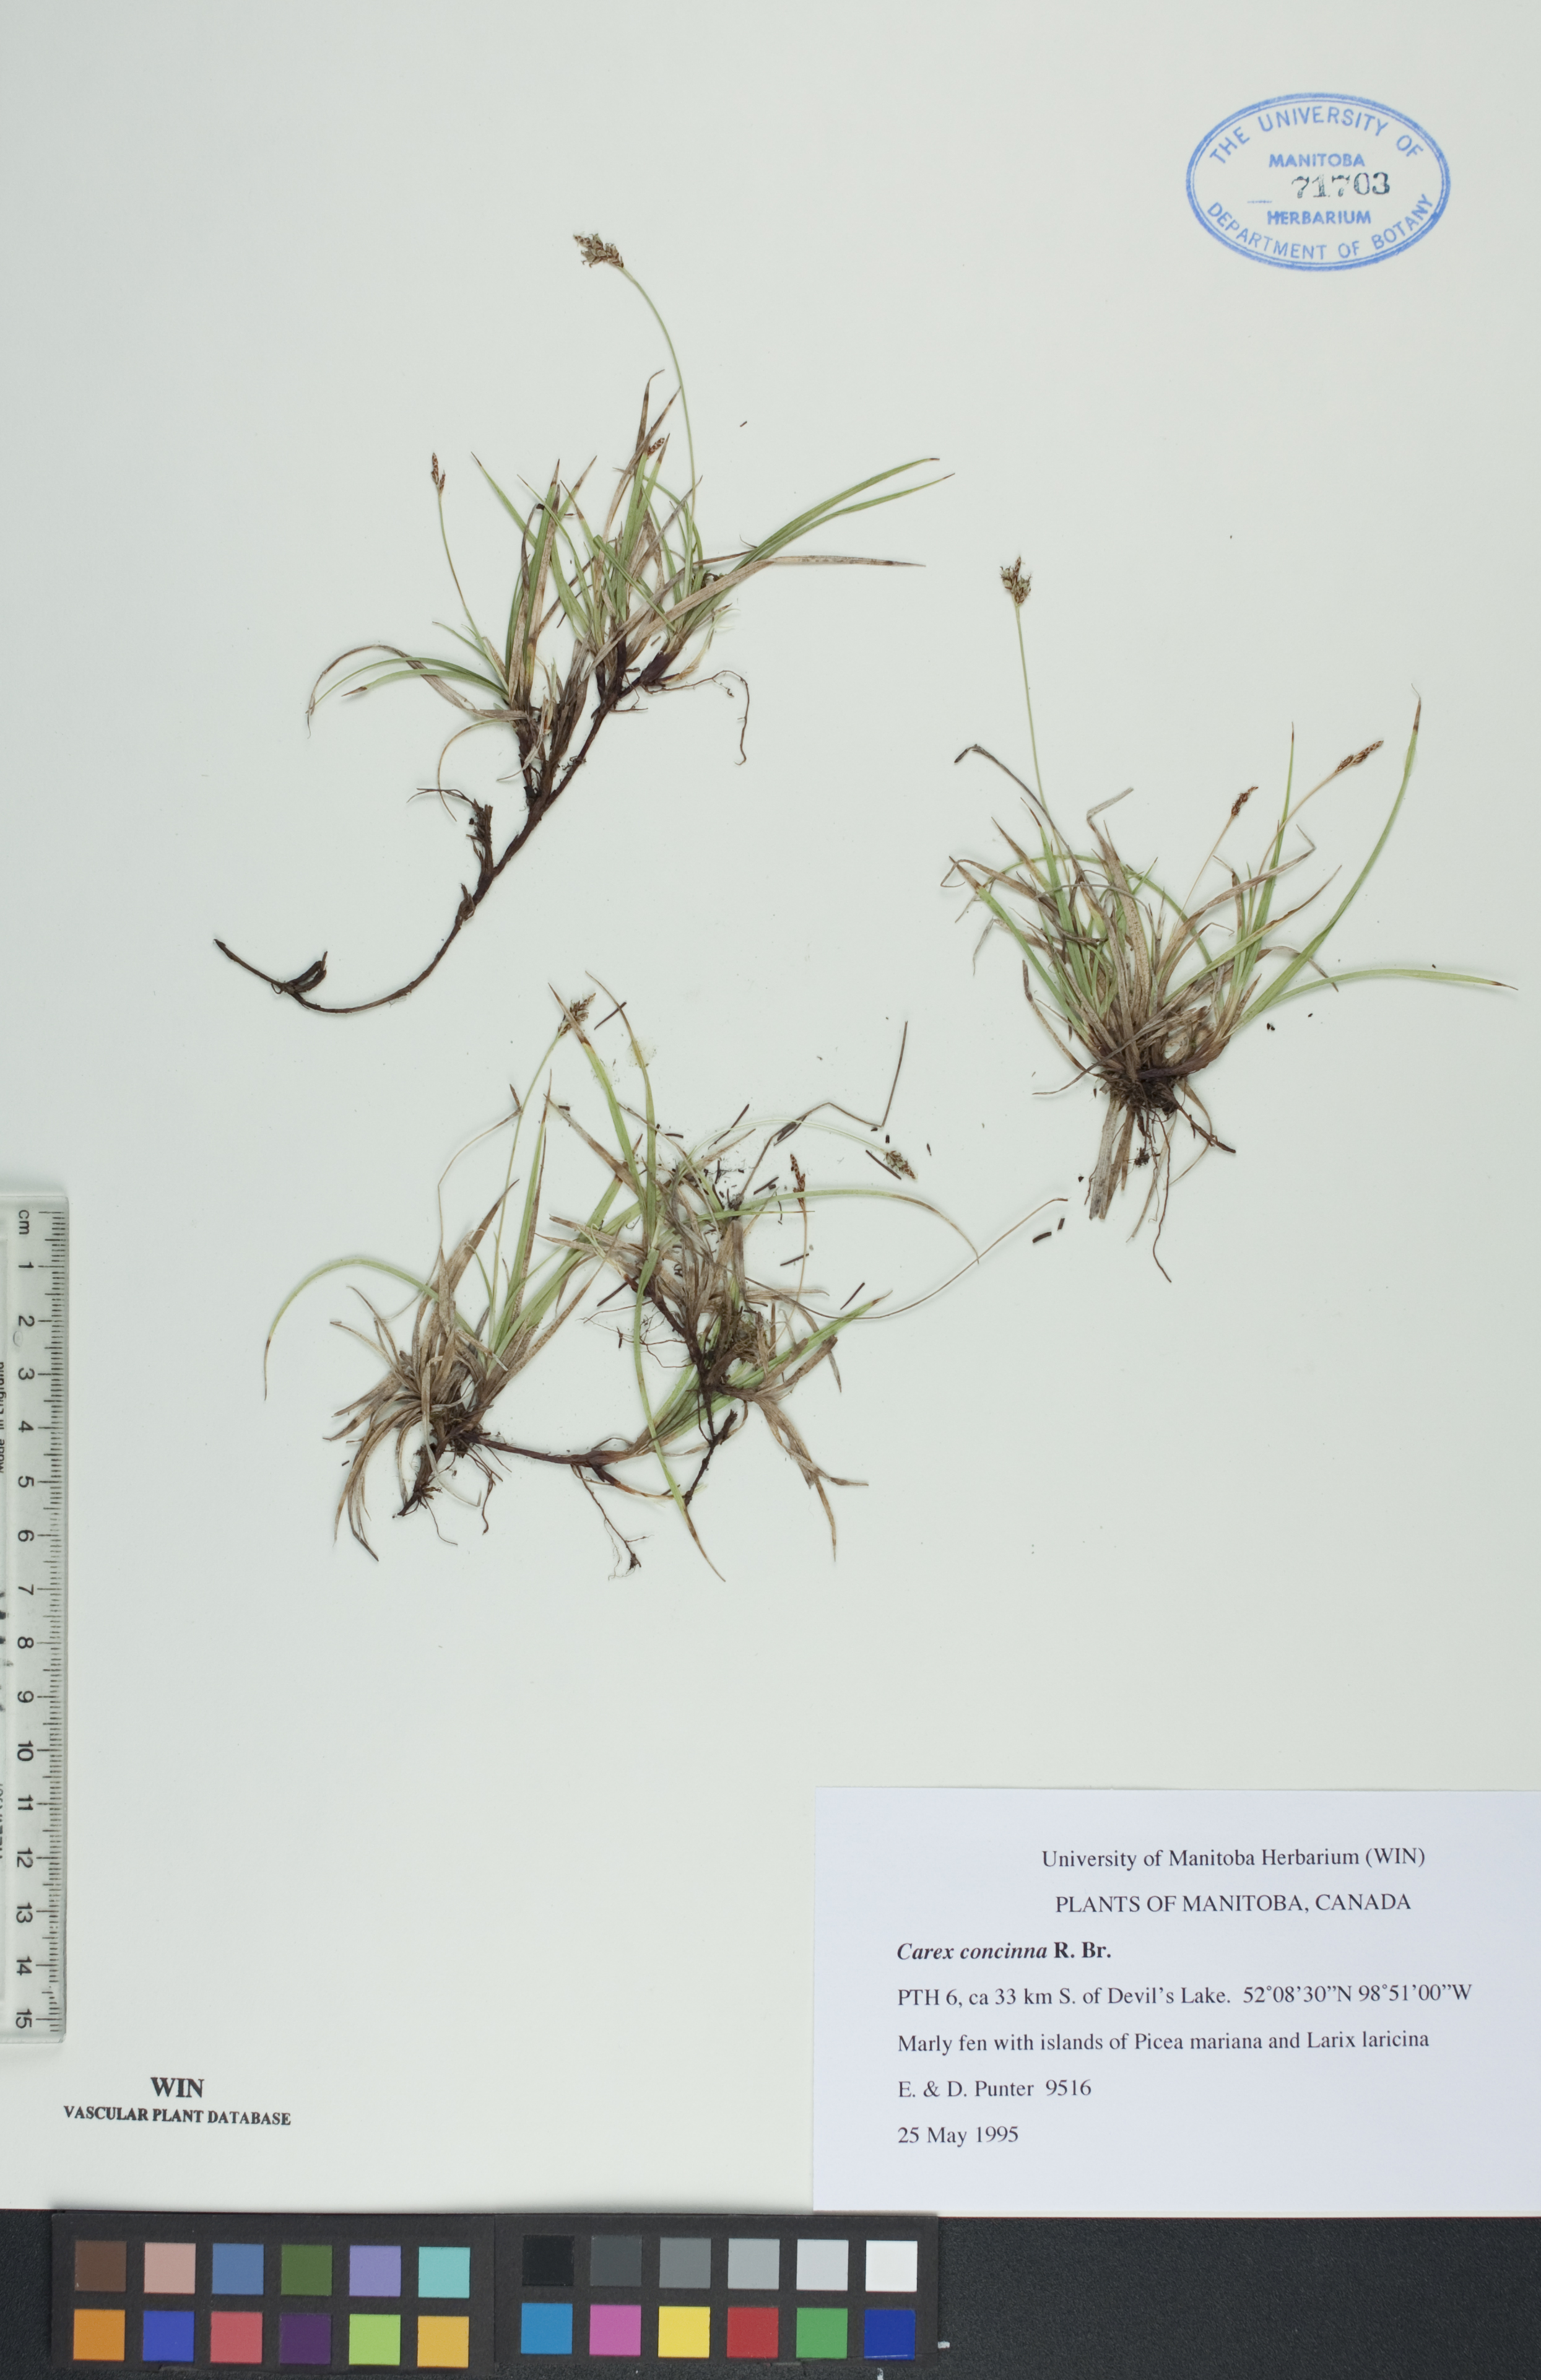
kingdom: Plantae
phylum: Tracheophyta
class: Liliopsida
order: Poales
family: Cyperaceae
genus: Carex
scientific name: Carex concinna
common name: Beautiful sedge
